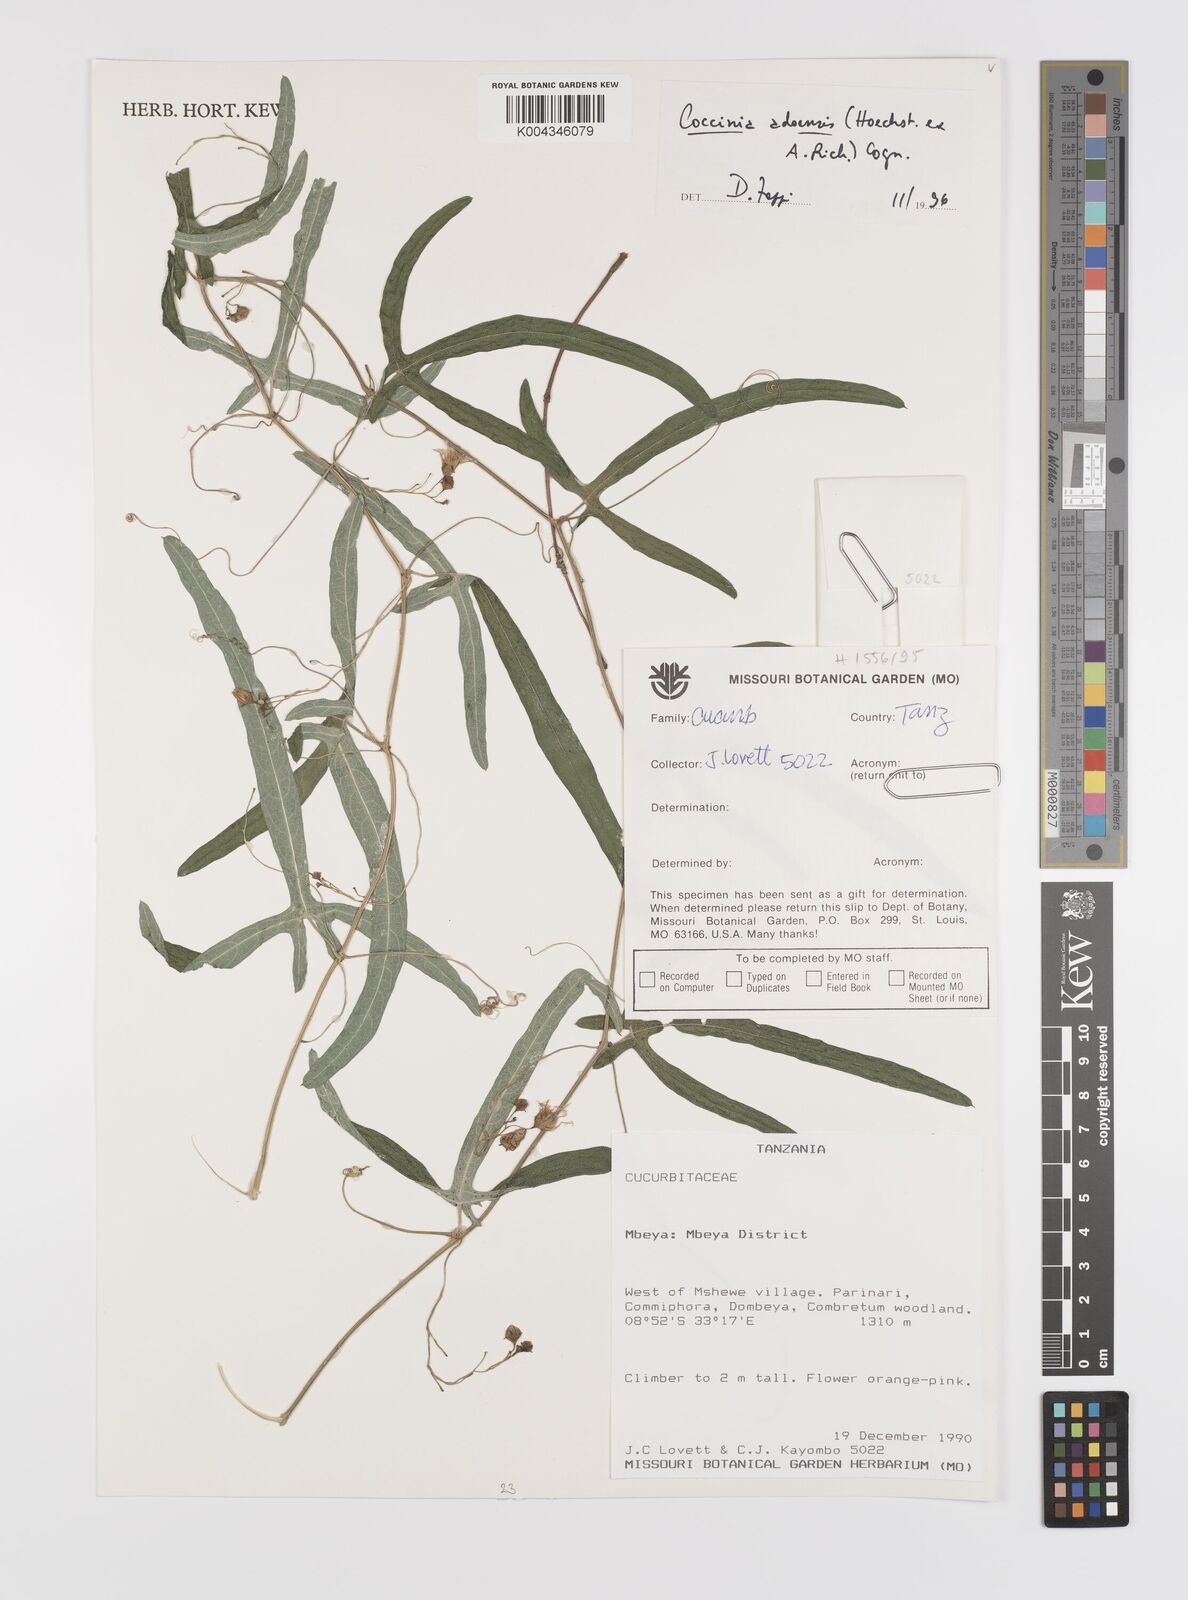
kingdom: Plantae
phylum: Tracheophyta
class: Magnoliopsida
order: Cucurbitales
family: Cucurbitaceae
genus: Coccinia
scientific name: Coccinia adoensis
